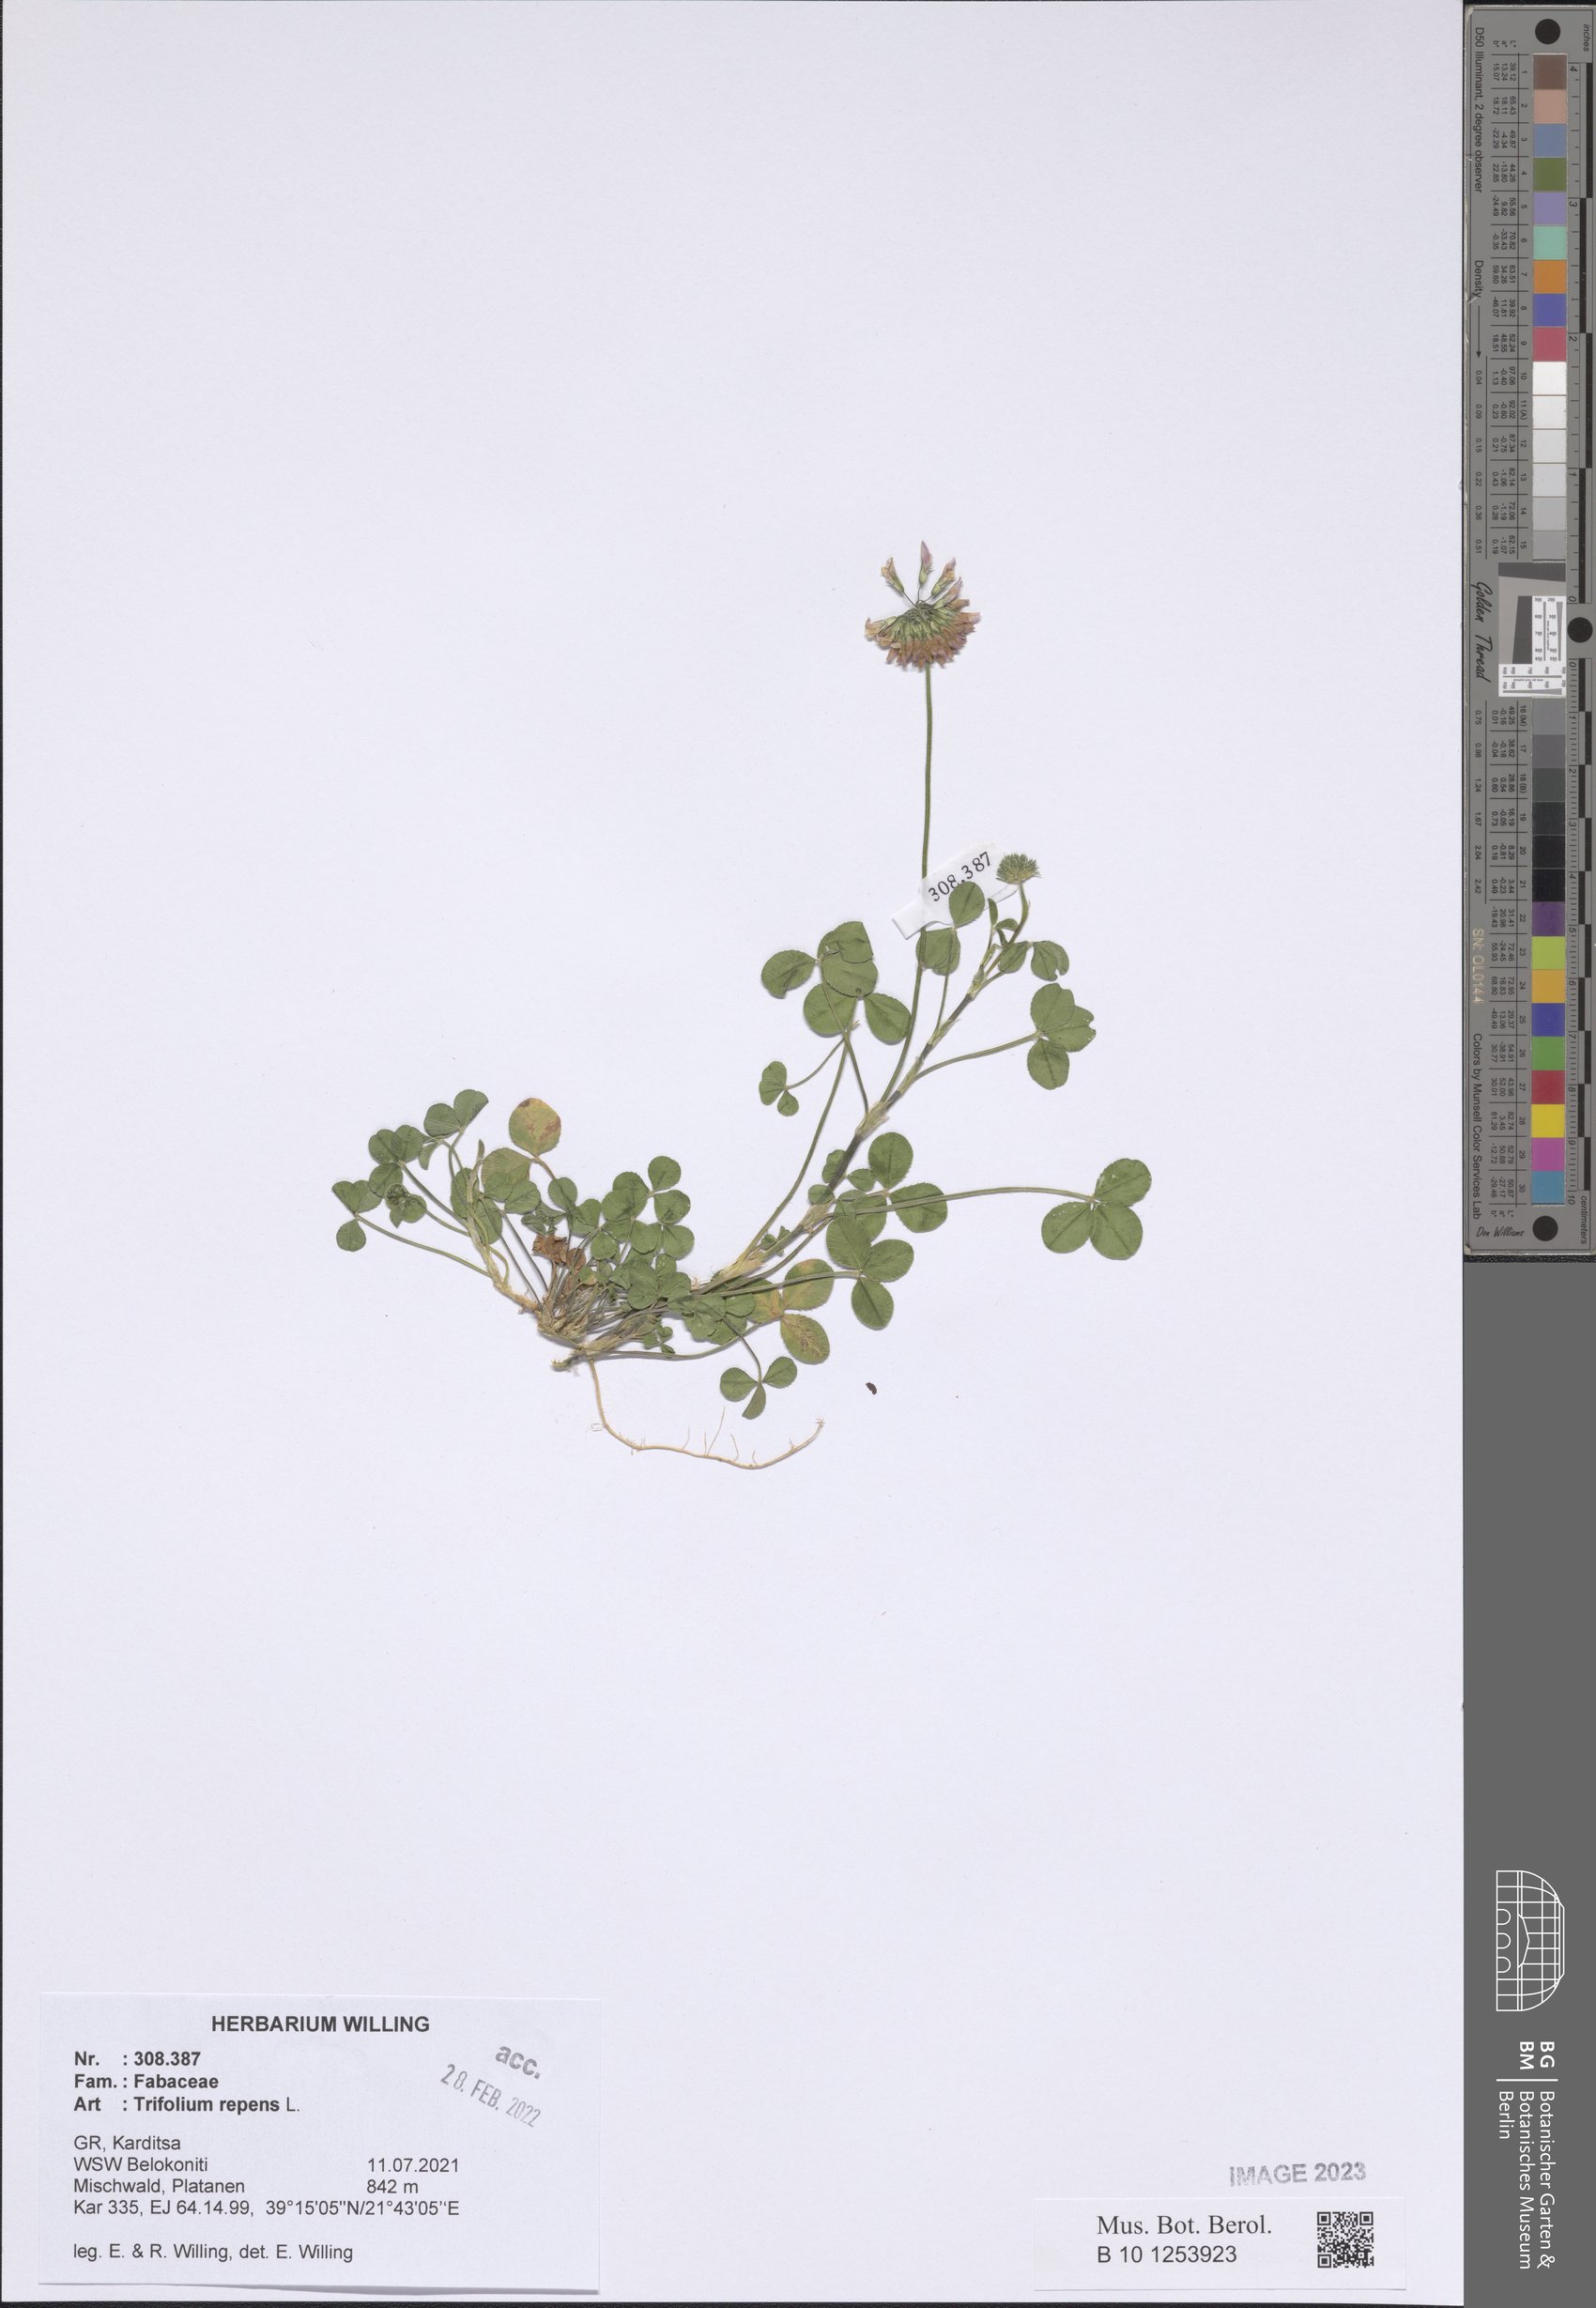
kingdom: Plantae
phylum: Tracheophyta
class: Magnoliopsida
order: Fabales
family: Fabaceae
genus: Trifolium
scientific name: Trifolium repens
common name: White clover
